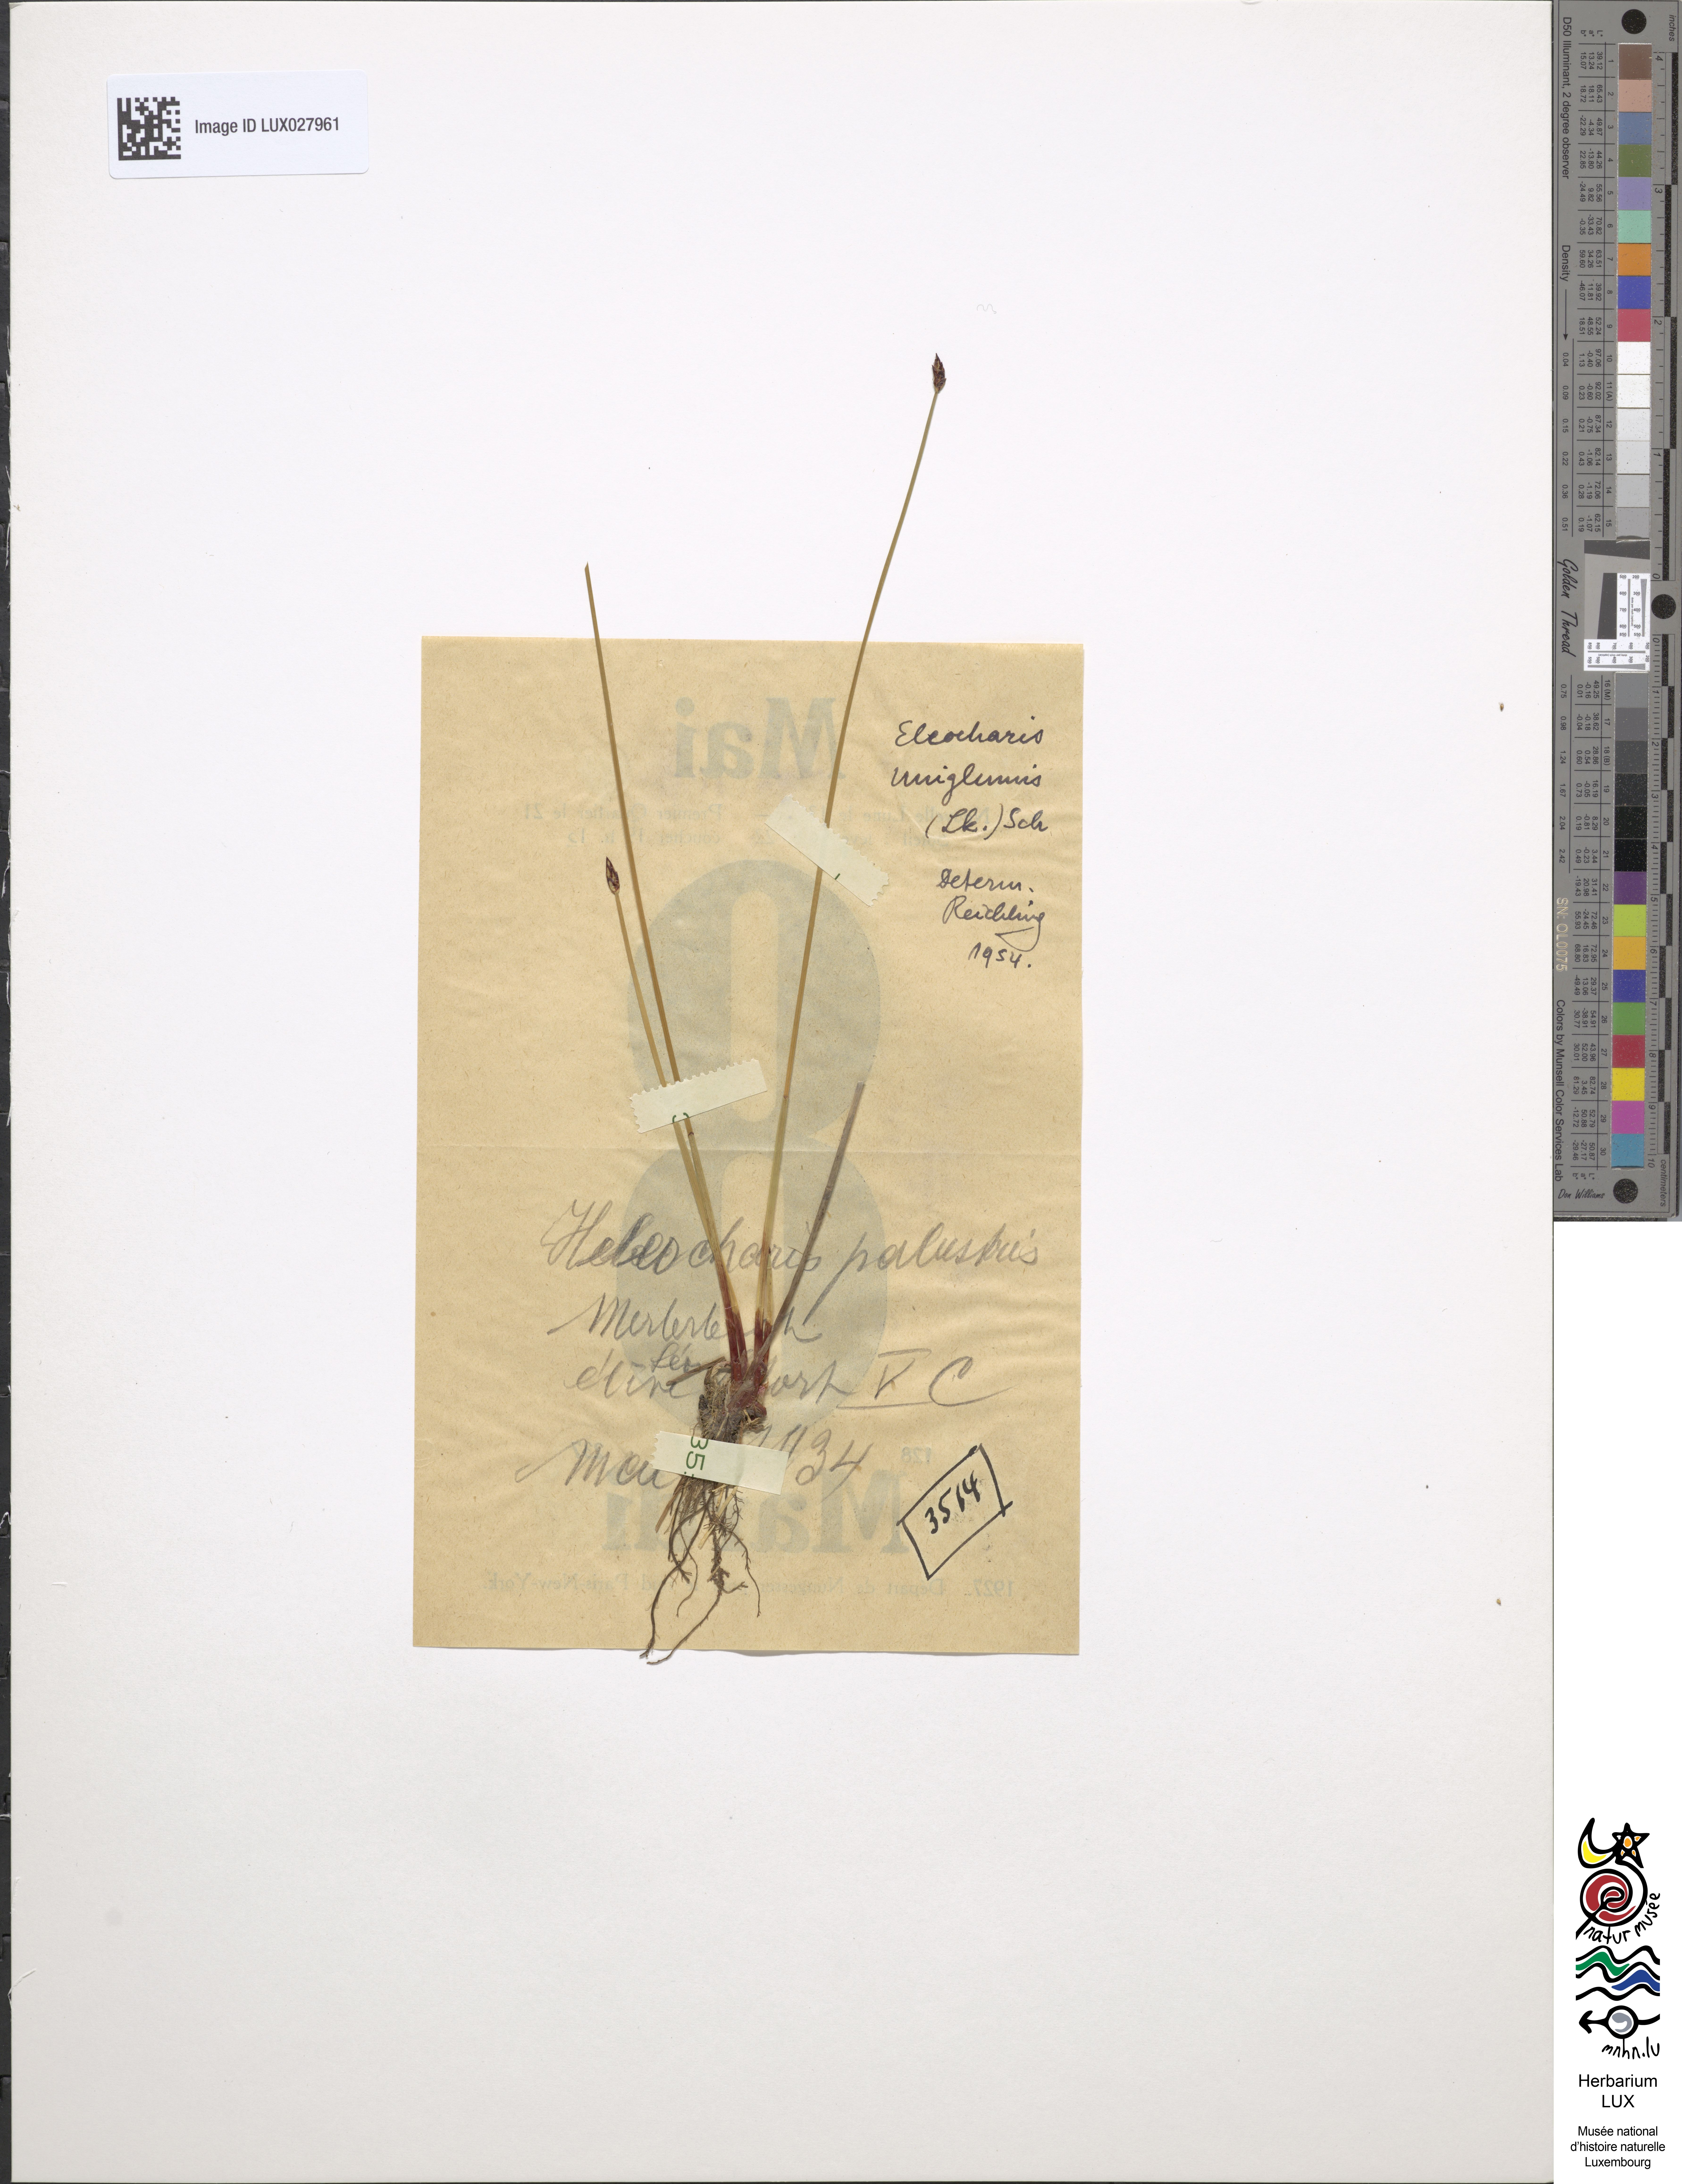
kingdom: Plantae
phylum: Tracheophyta
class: Liliopsida
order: Poales
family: Cyperaceae
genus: Eleocharis
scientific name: Eleocharis palustris
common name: Common spike-rush
